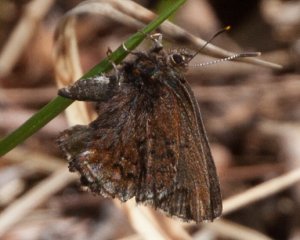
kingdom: Animalia
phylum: Arthropoda
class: Insecta
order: Lepidoptera
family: Lycaenidae
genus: Incisalia
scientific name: Incisalia niphon
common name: Eastern Pine Elfin
